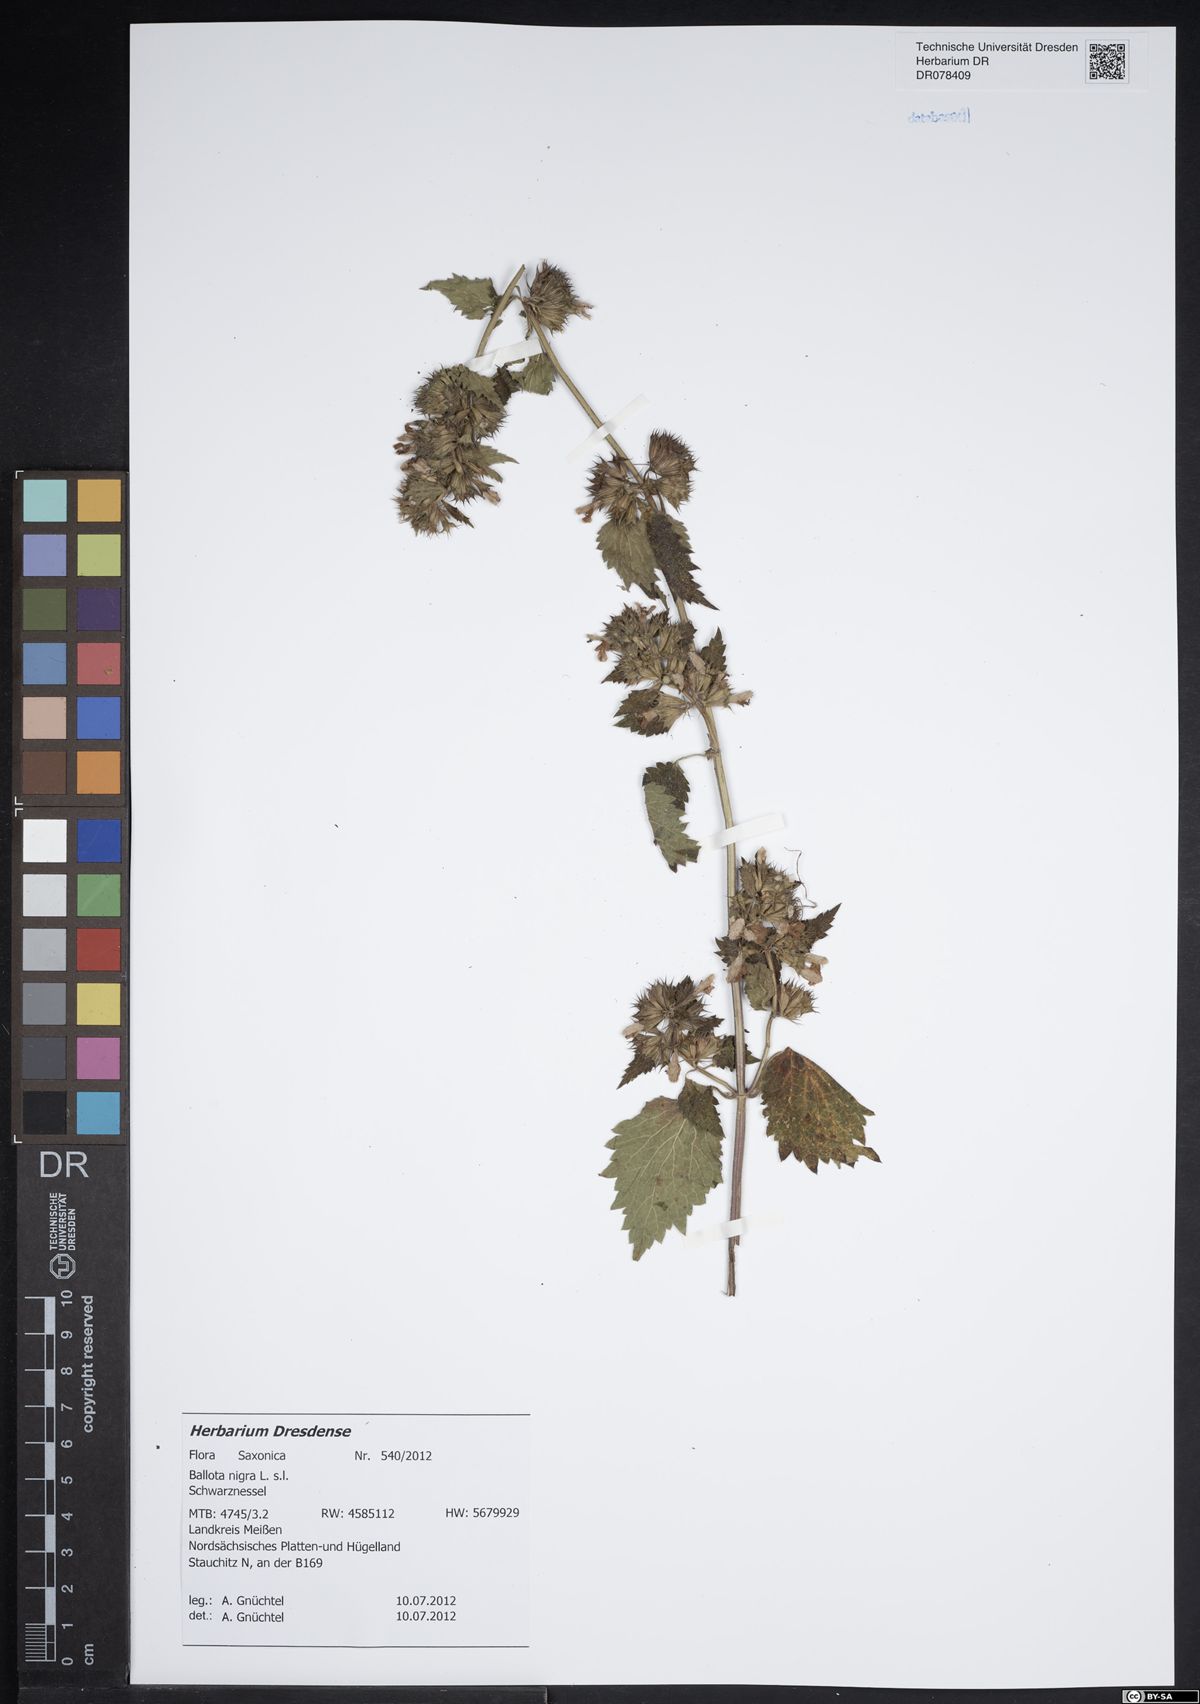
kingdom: Plantae
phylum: Tracheophyta
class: Magnoliopsida
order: Lamiales
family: Lamiaceae
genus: Ballota
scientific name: Ballota nigra
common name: Black horehound
